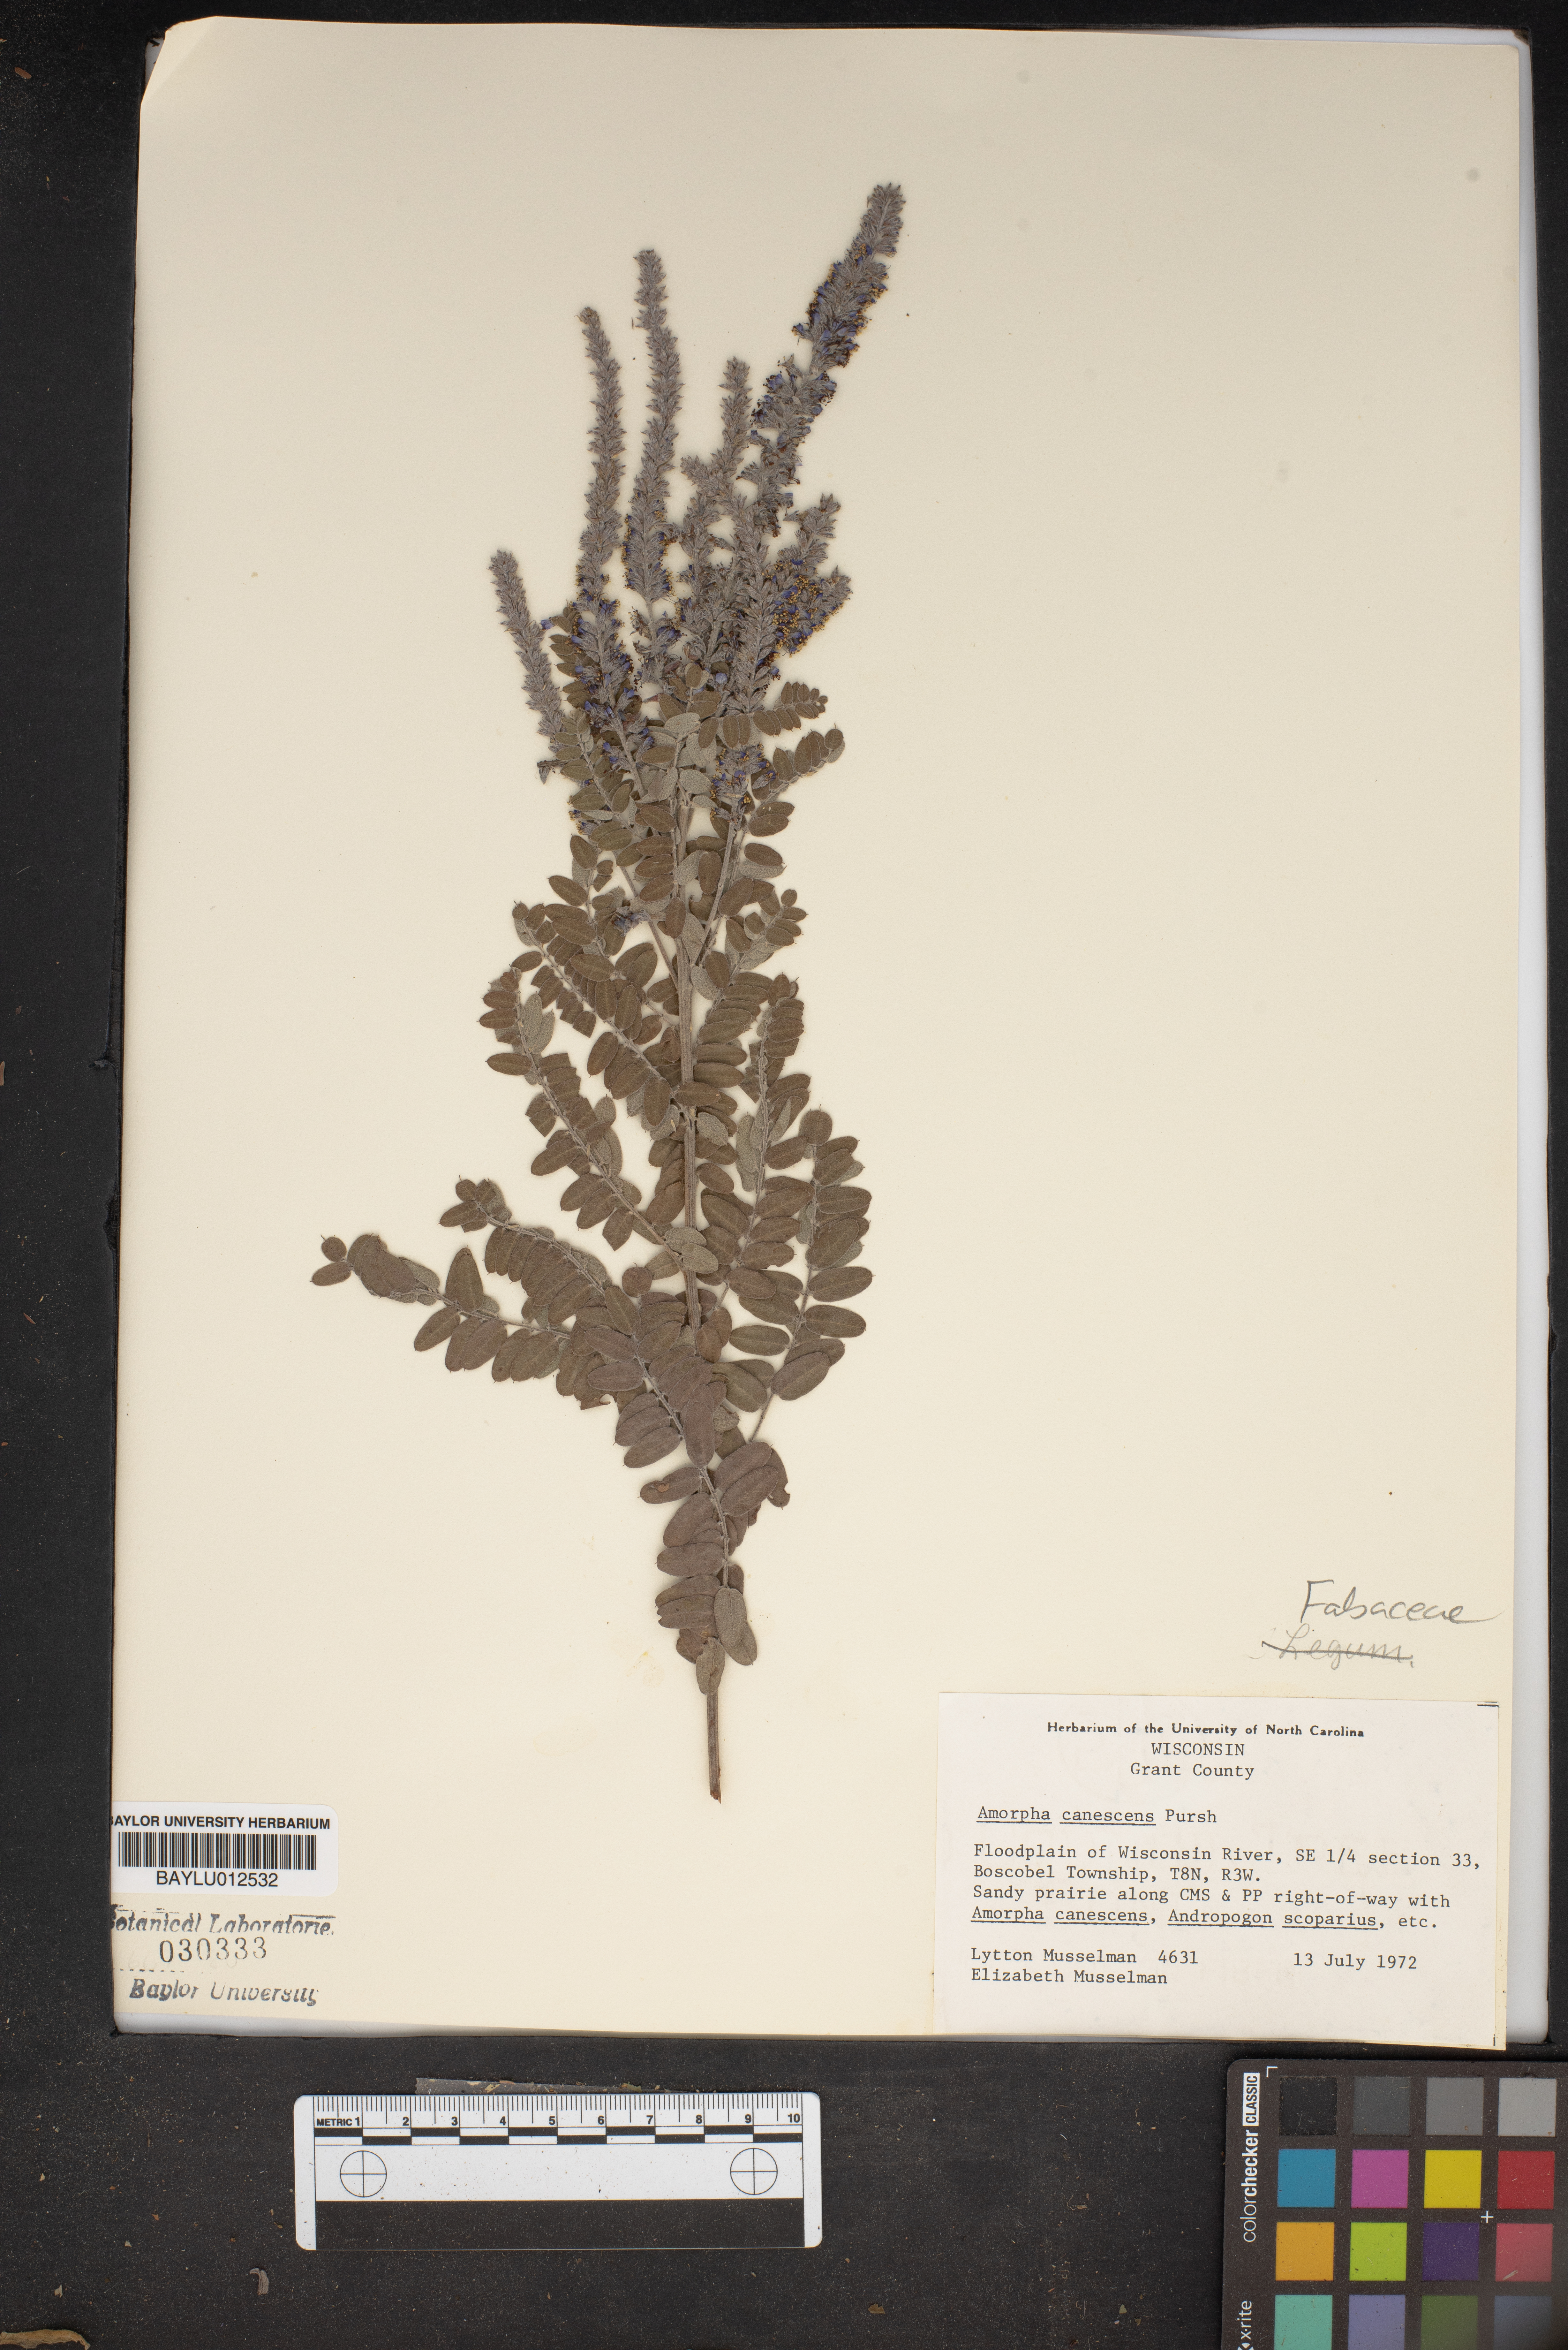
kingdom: Plantae
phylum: Tracheophyta
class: Magnoliopsida
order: Fabales
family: Fabaceae
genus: Amorpha
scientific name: Amorpha canescens
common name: Leadplant
